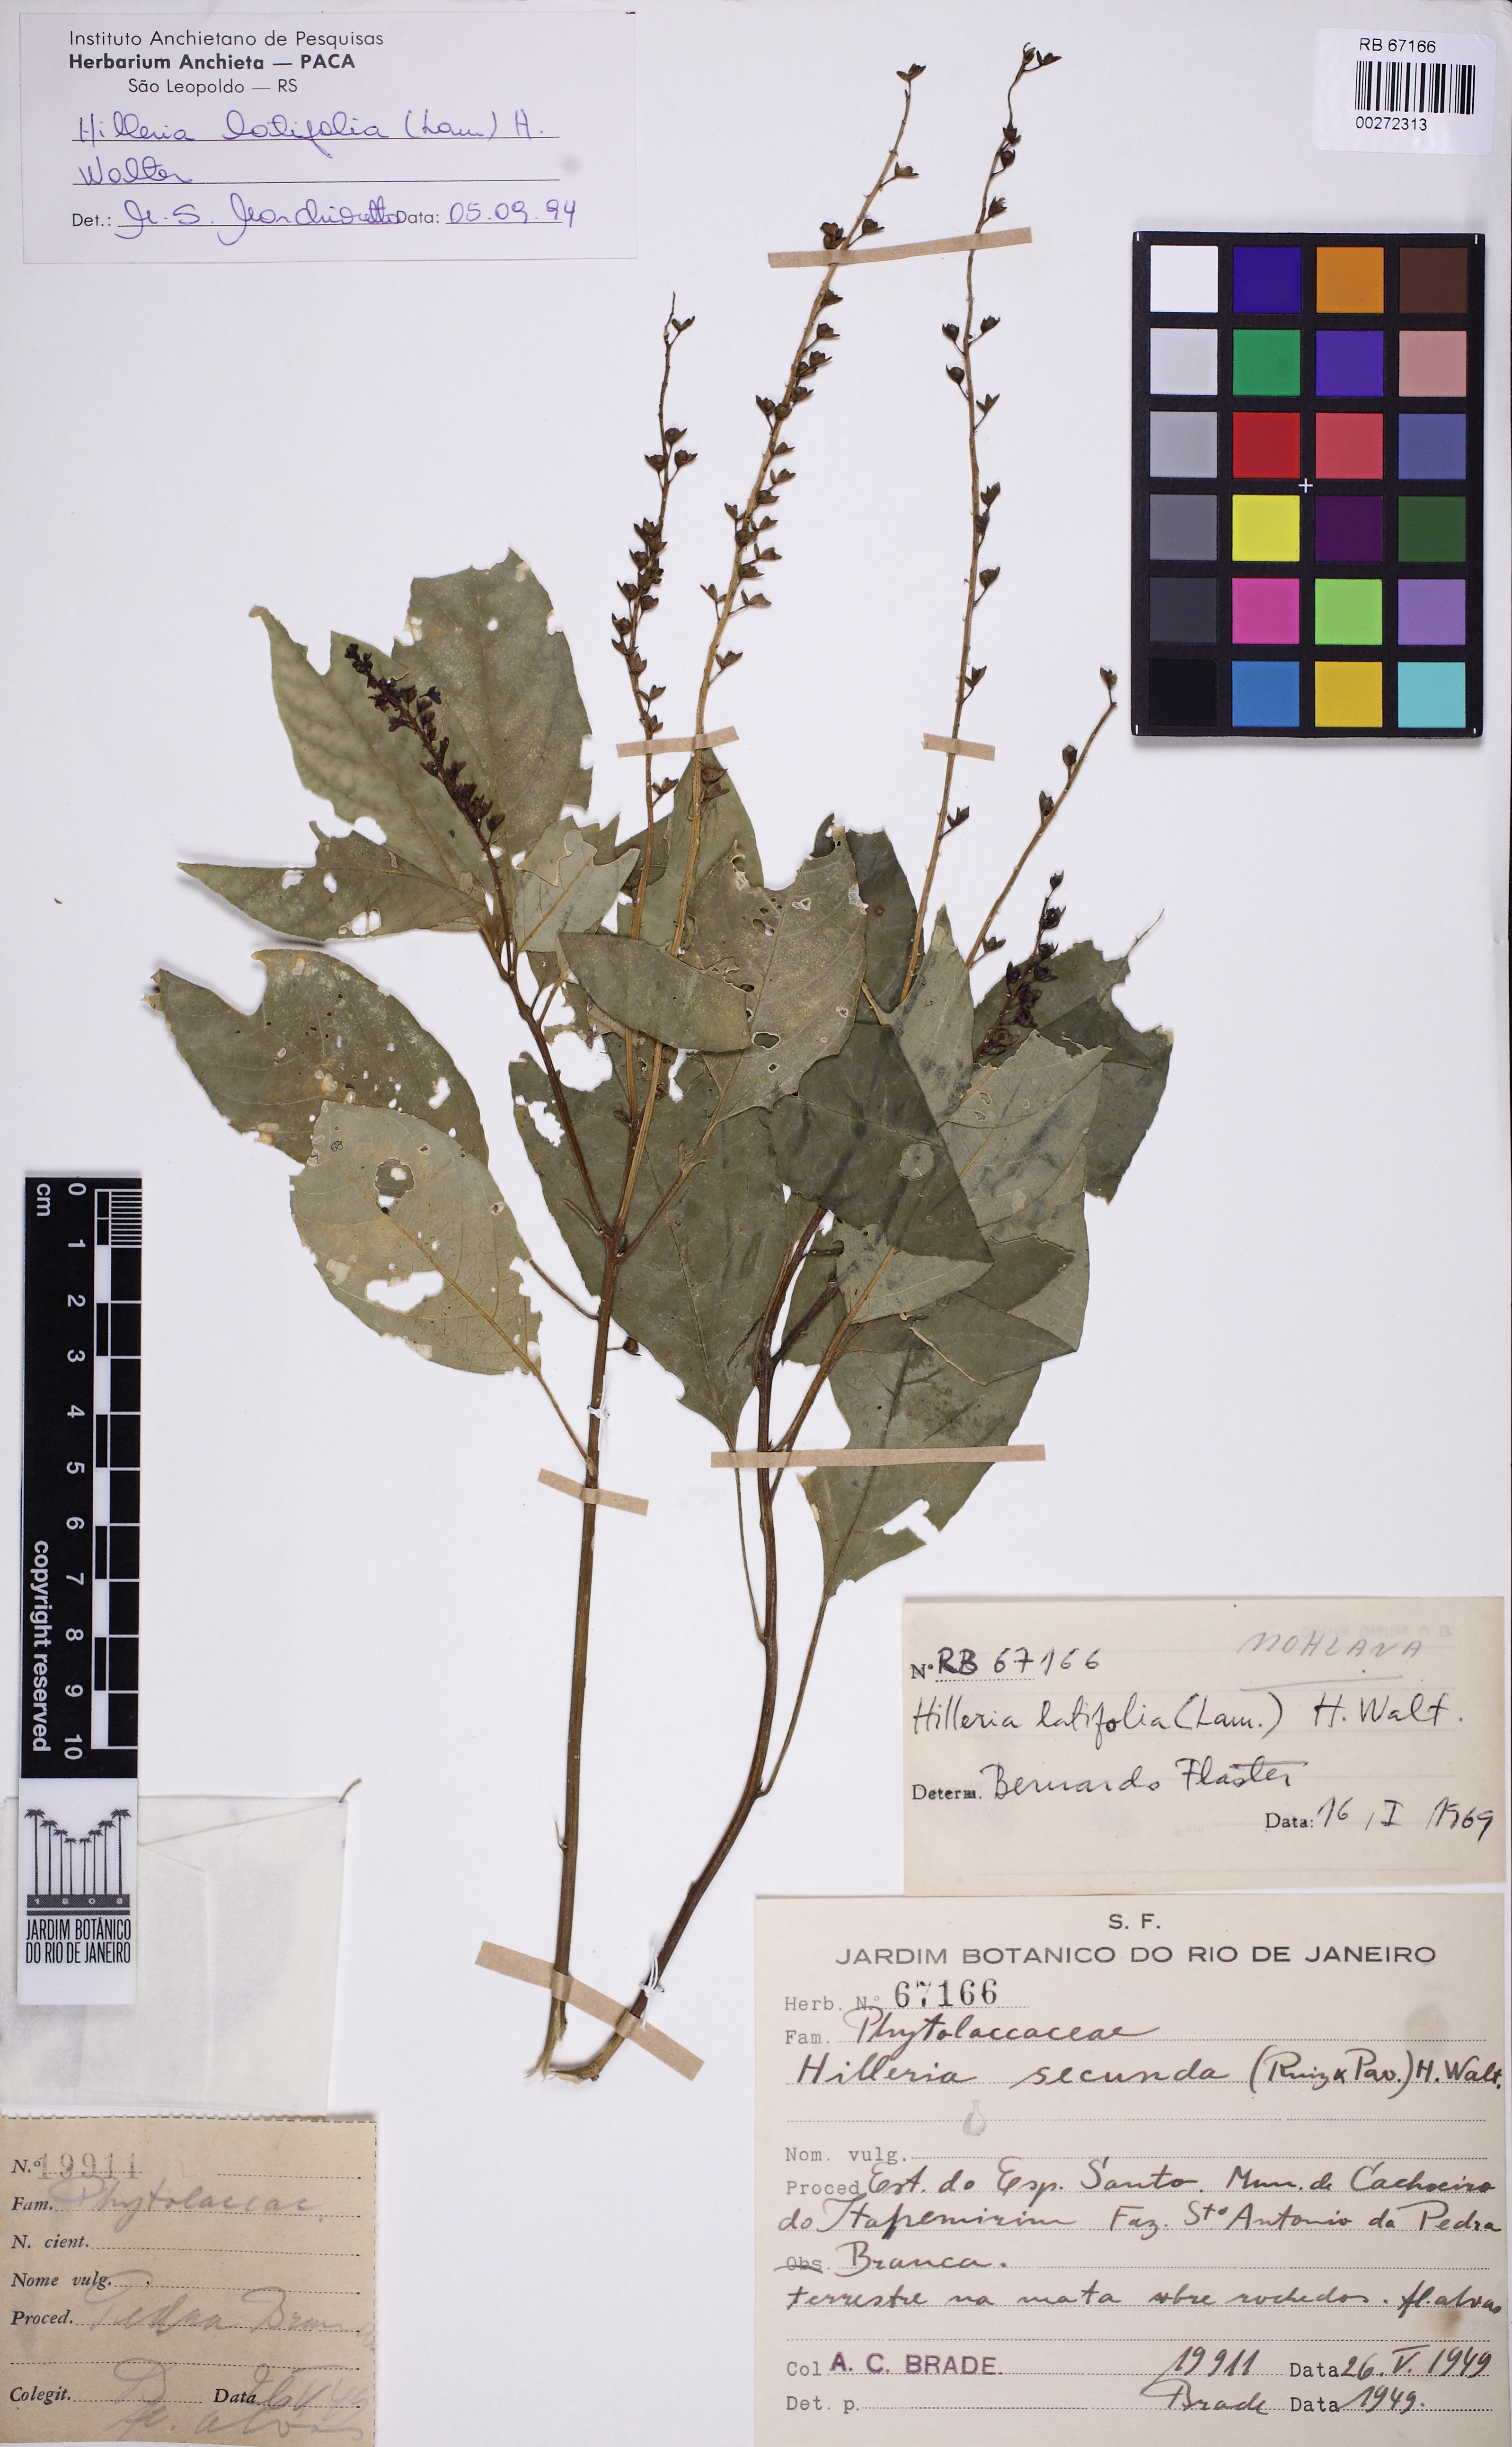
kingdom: Plantae
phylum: Tracheophyta
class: Magnoliopsida
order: Caryophyllales
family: Phytolaccaceae
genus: Hilleria
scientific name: Hilleria latifolia
